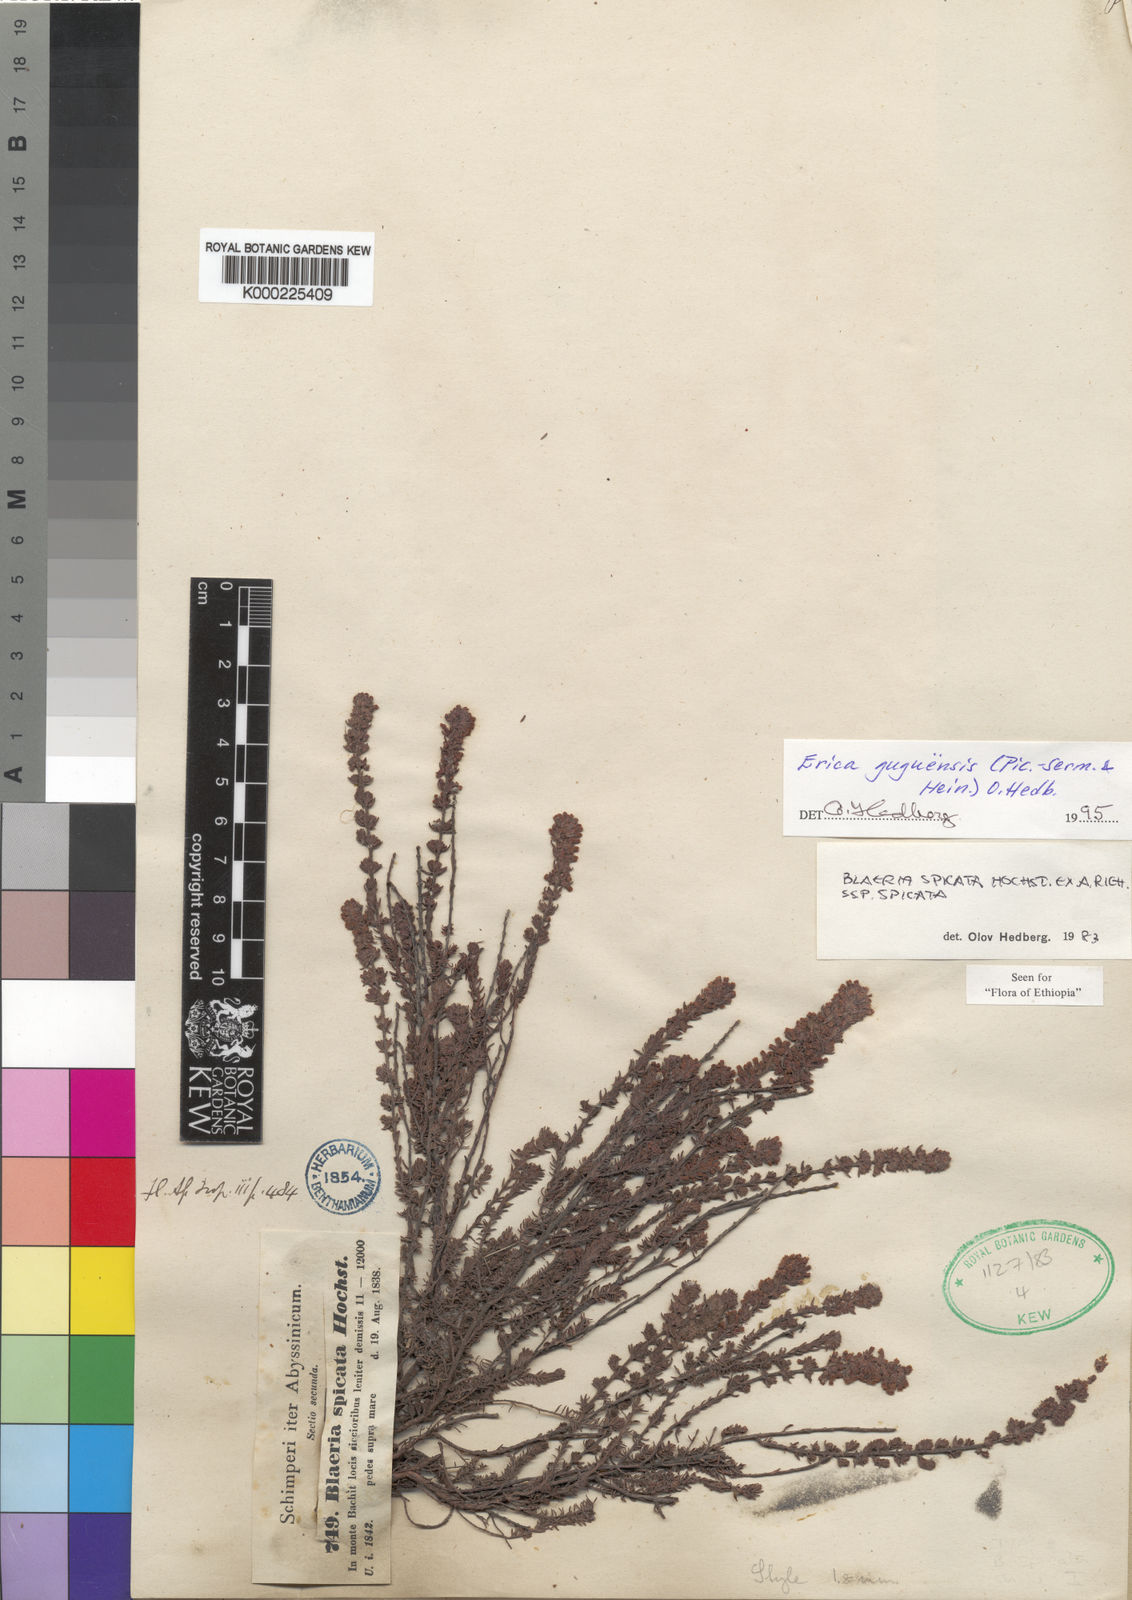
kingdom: Plantae
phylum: Tracheophyta
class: Magnoliopsida
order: Ericales
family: Ericaceae
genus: Erica
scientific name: Erica silvatica
